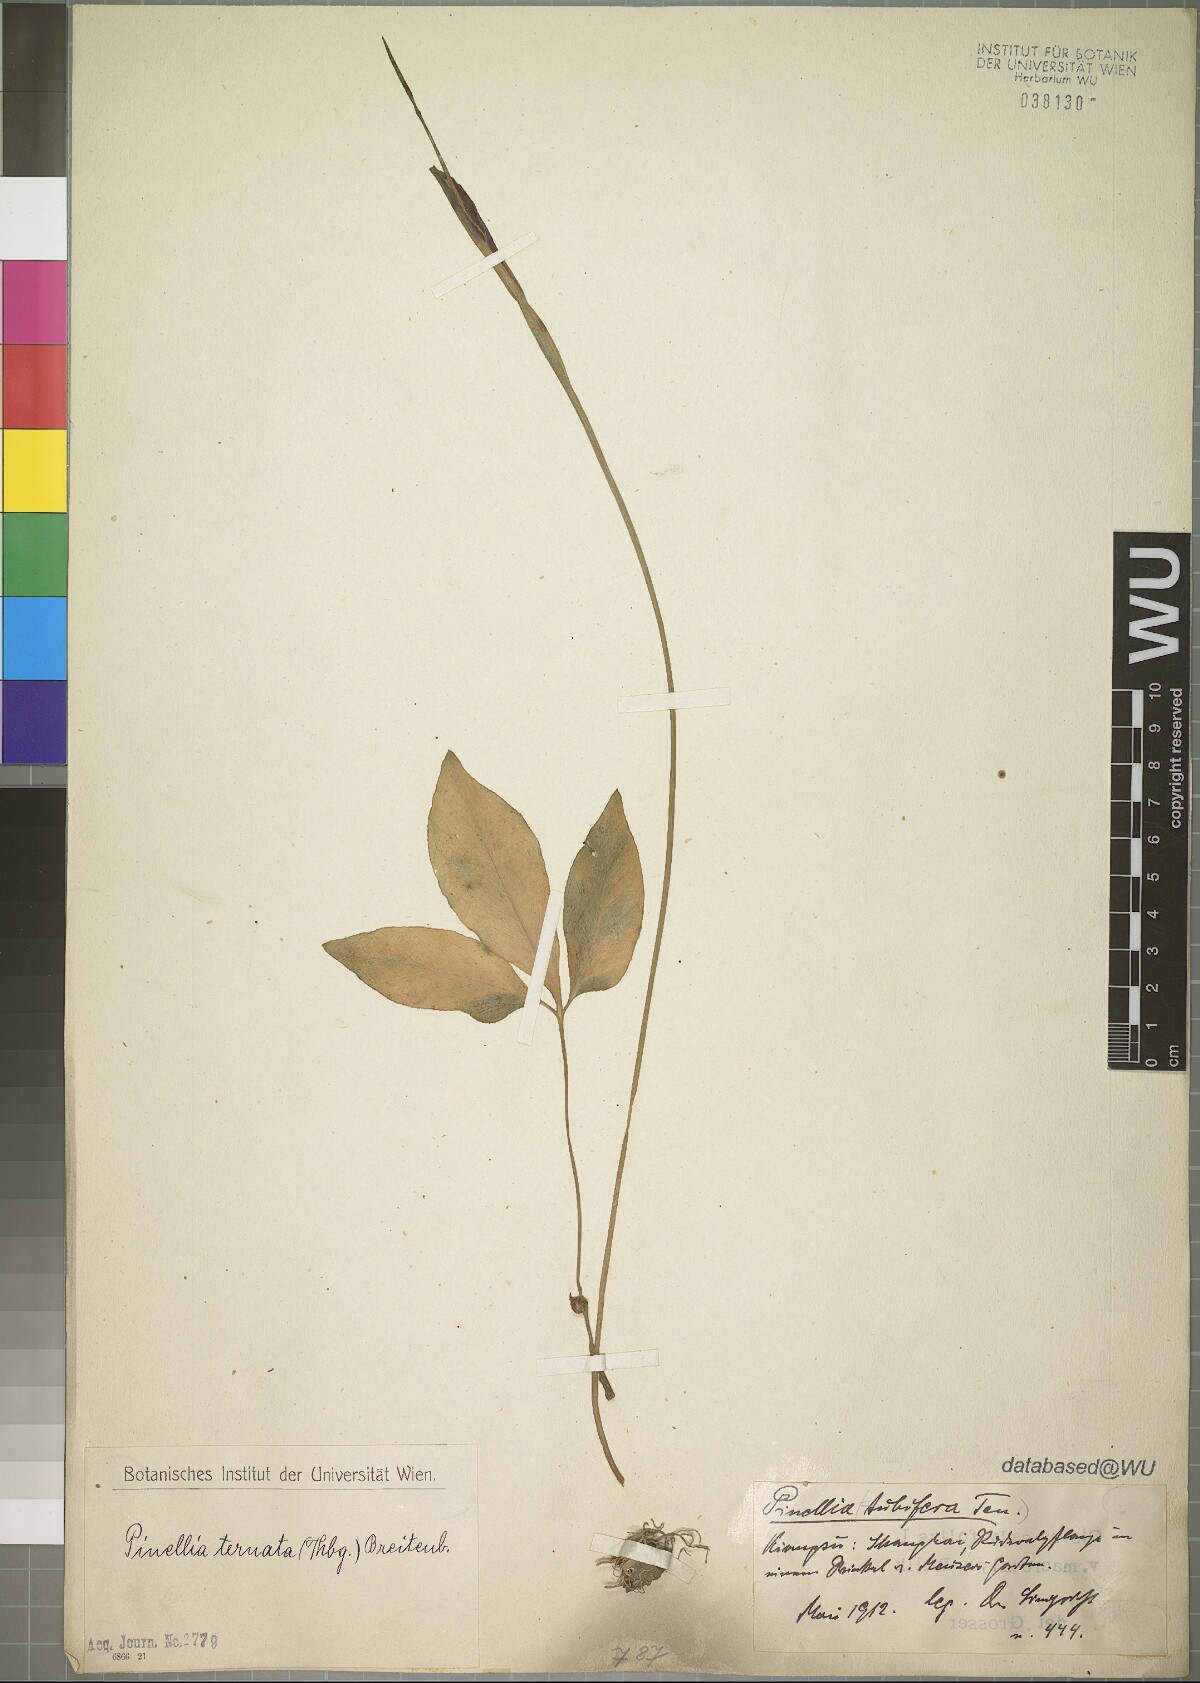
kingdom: Plantae
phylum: Tracheophyta
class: Liliopsida
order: Alismatales
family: Araceae
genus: Pinellia
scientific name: Pinellia ternata
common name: Pinellia
